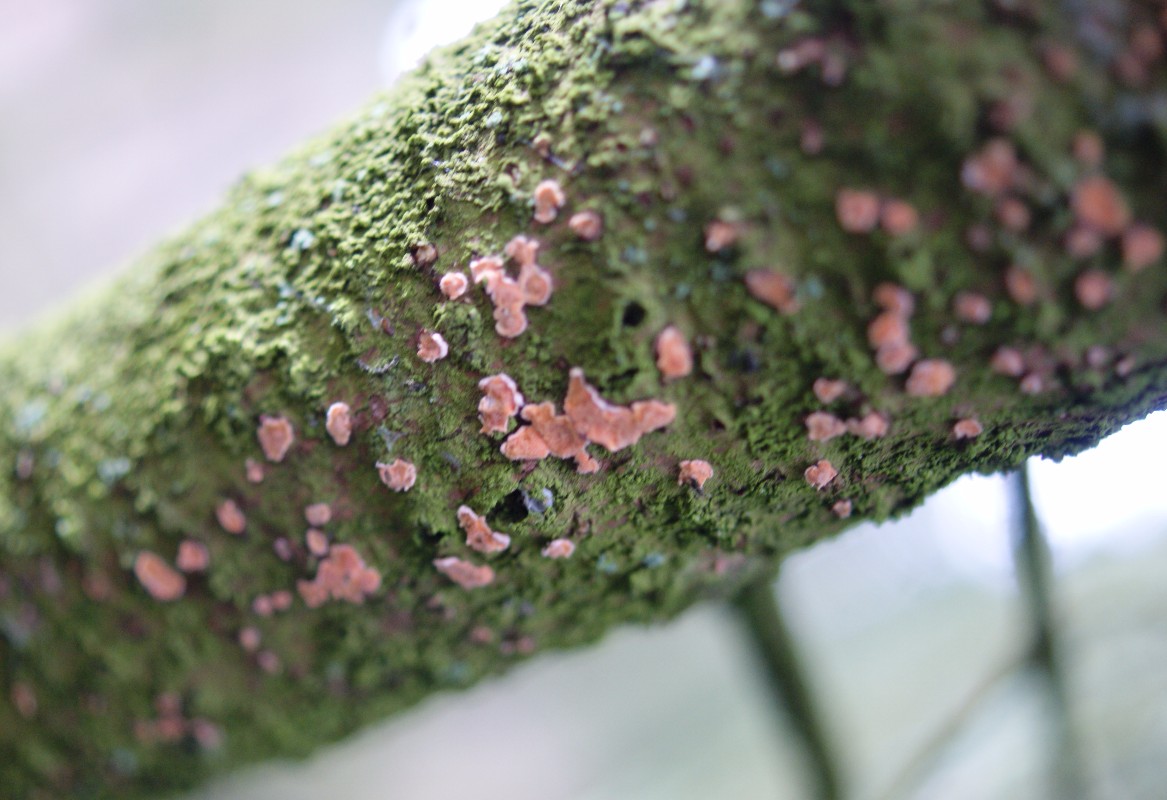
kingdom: Fungi
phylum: Basidiomycota
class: Agaricomycetes
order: Russulales
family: Stereaceae
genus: Aleurodiscus
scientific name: Aleurodiscus amorphus
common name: orange skiveskorpe
